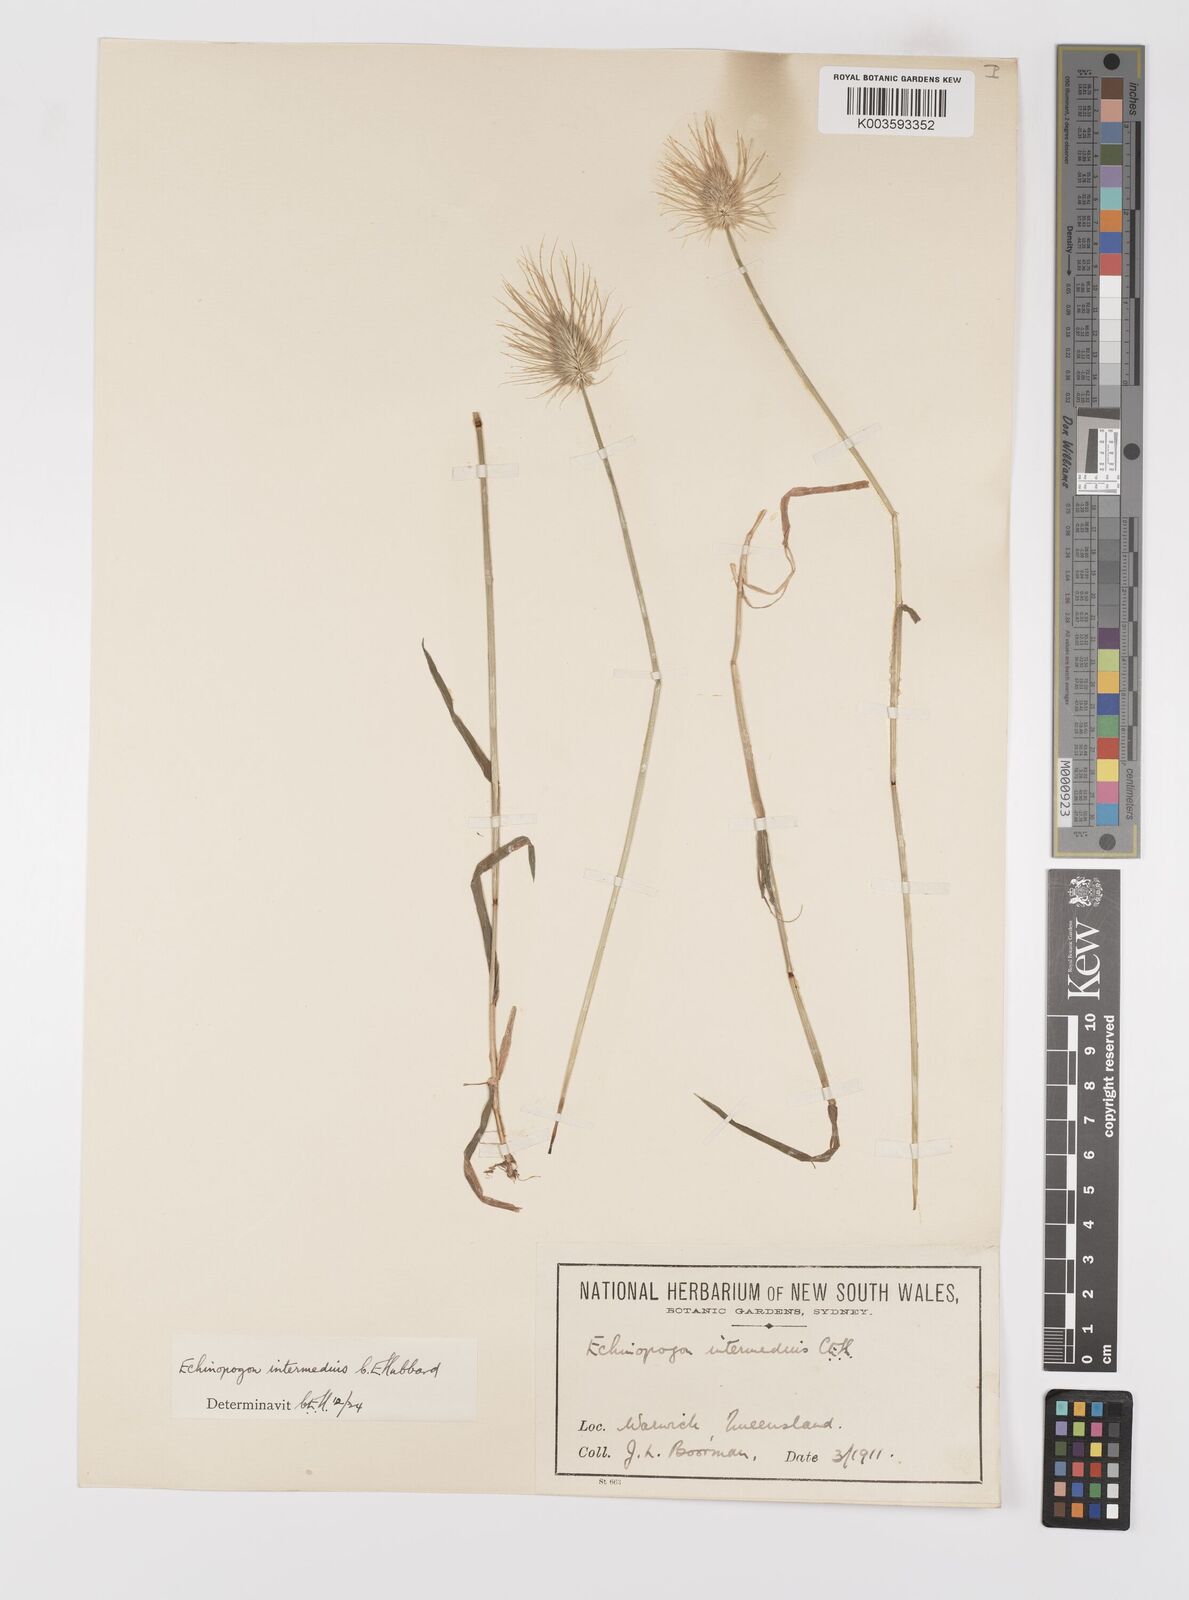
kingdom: Plantae
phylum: Tracheophyta
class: Liliopsida
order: Poales
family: Poaceae
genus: Echinopogon
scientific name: Echinopogon intermedius
